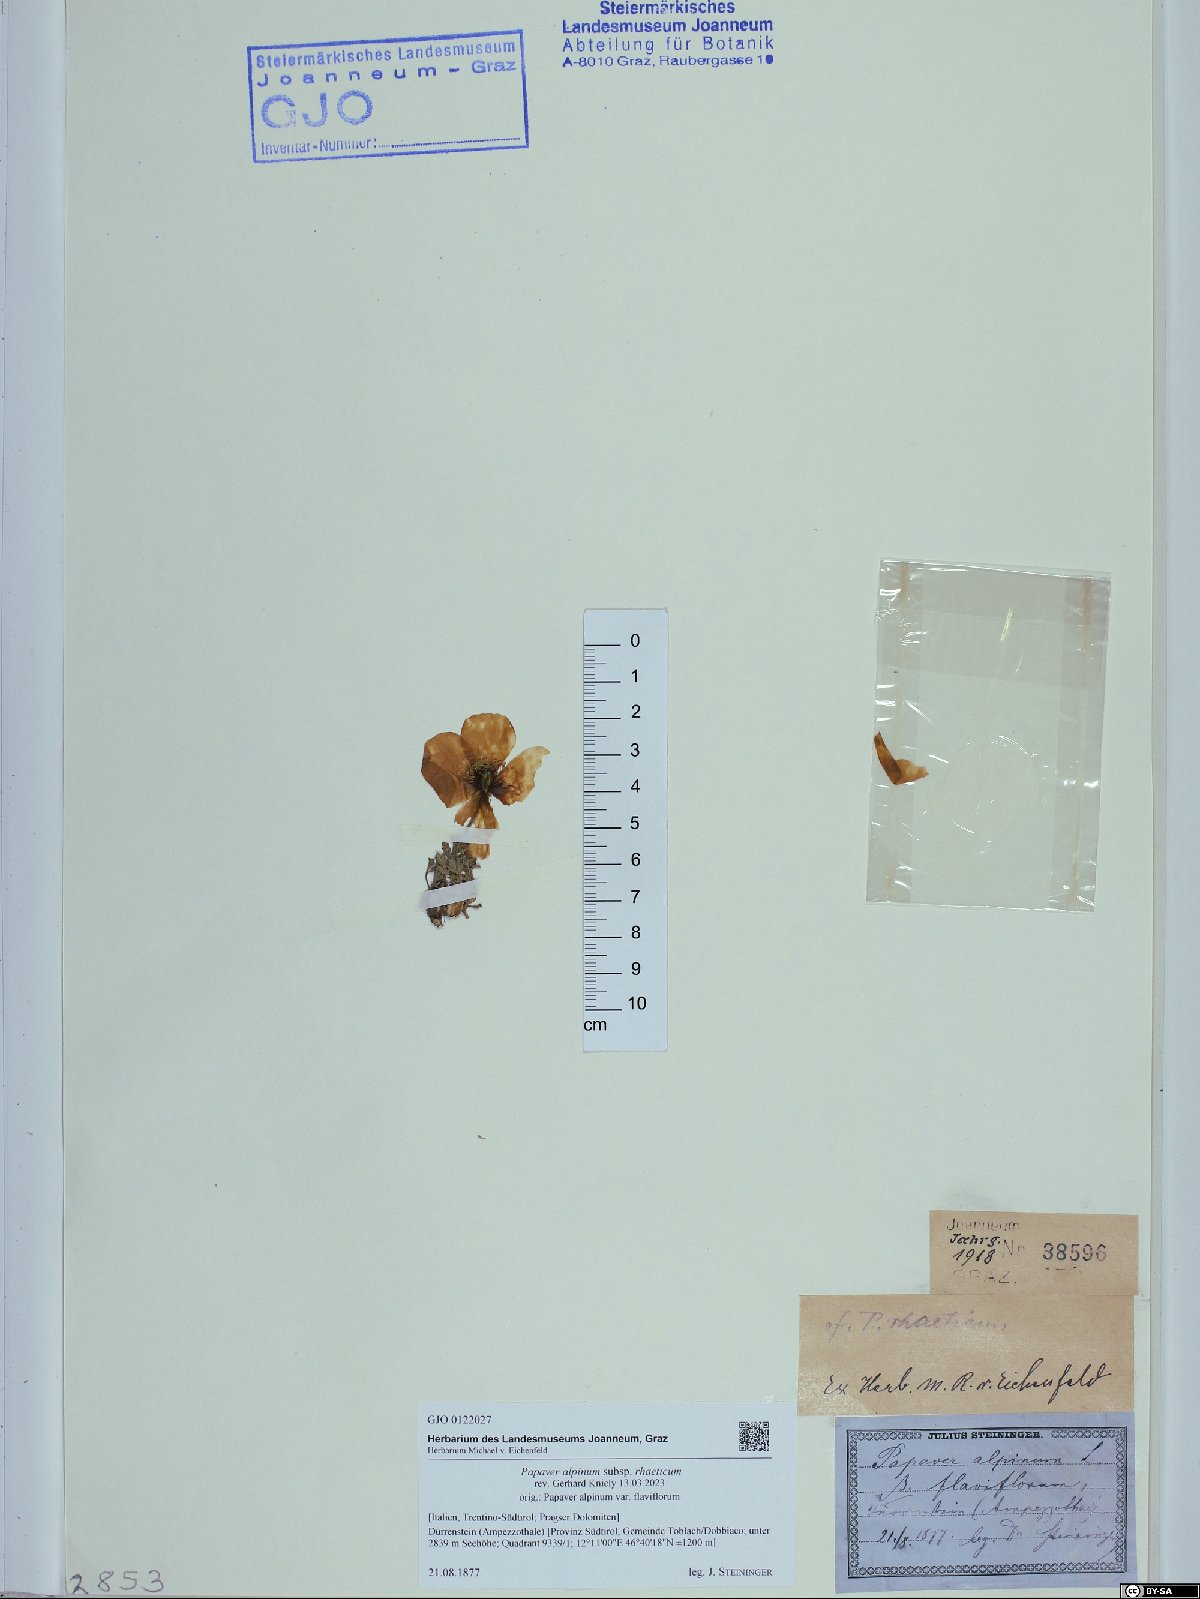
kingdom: Plantae
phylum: Tracheophyta
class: Magnoliopsida
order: Ranunculales
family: Papaveraceae
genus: Papaver
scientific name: Papaver alpinum
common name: Austrian poppy
